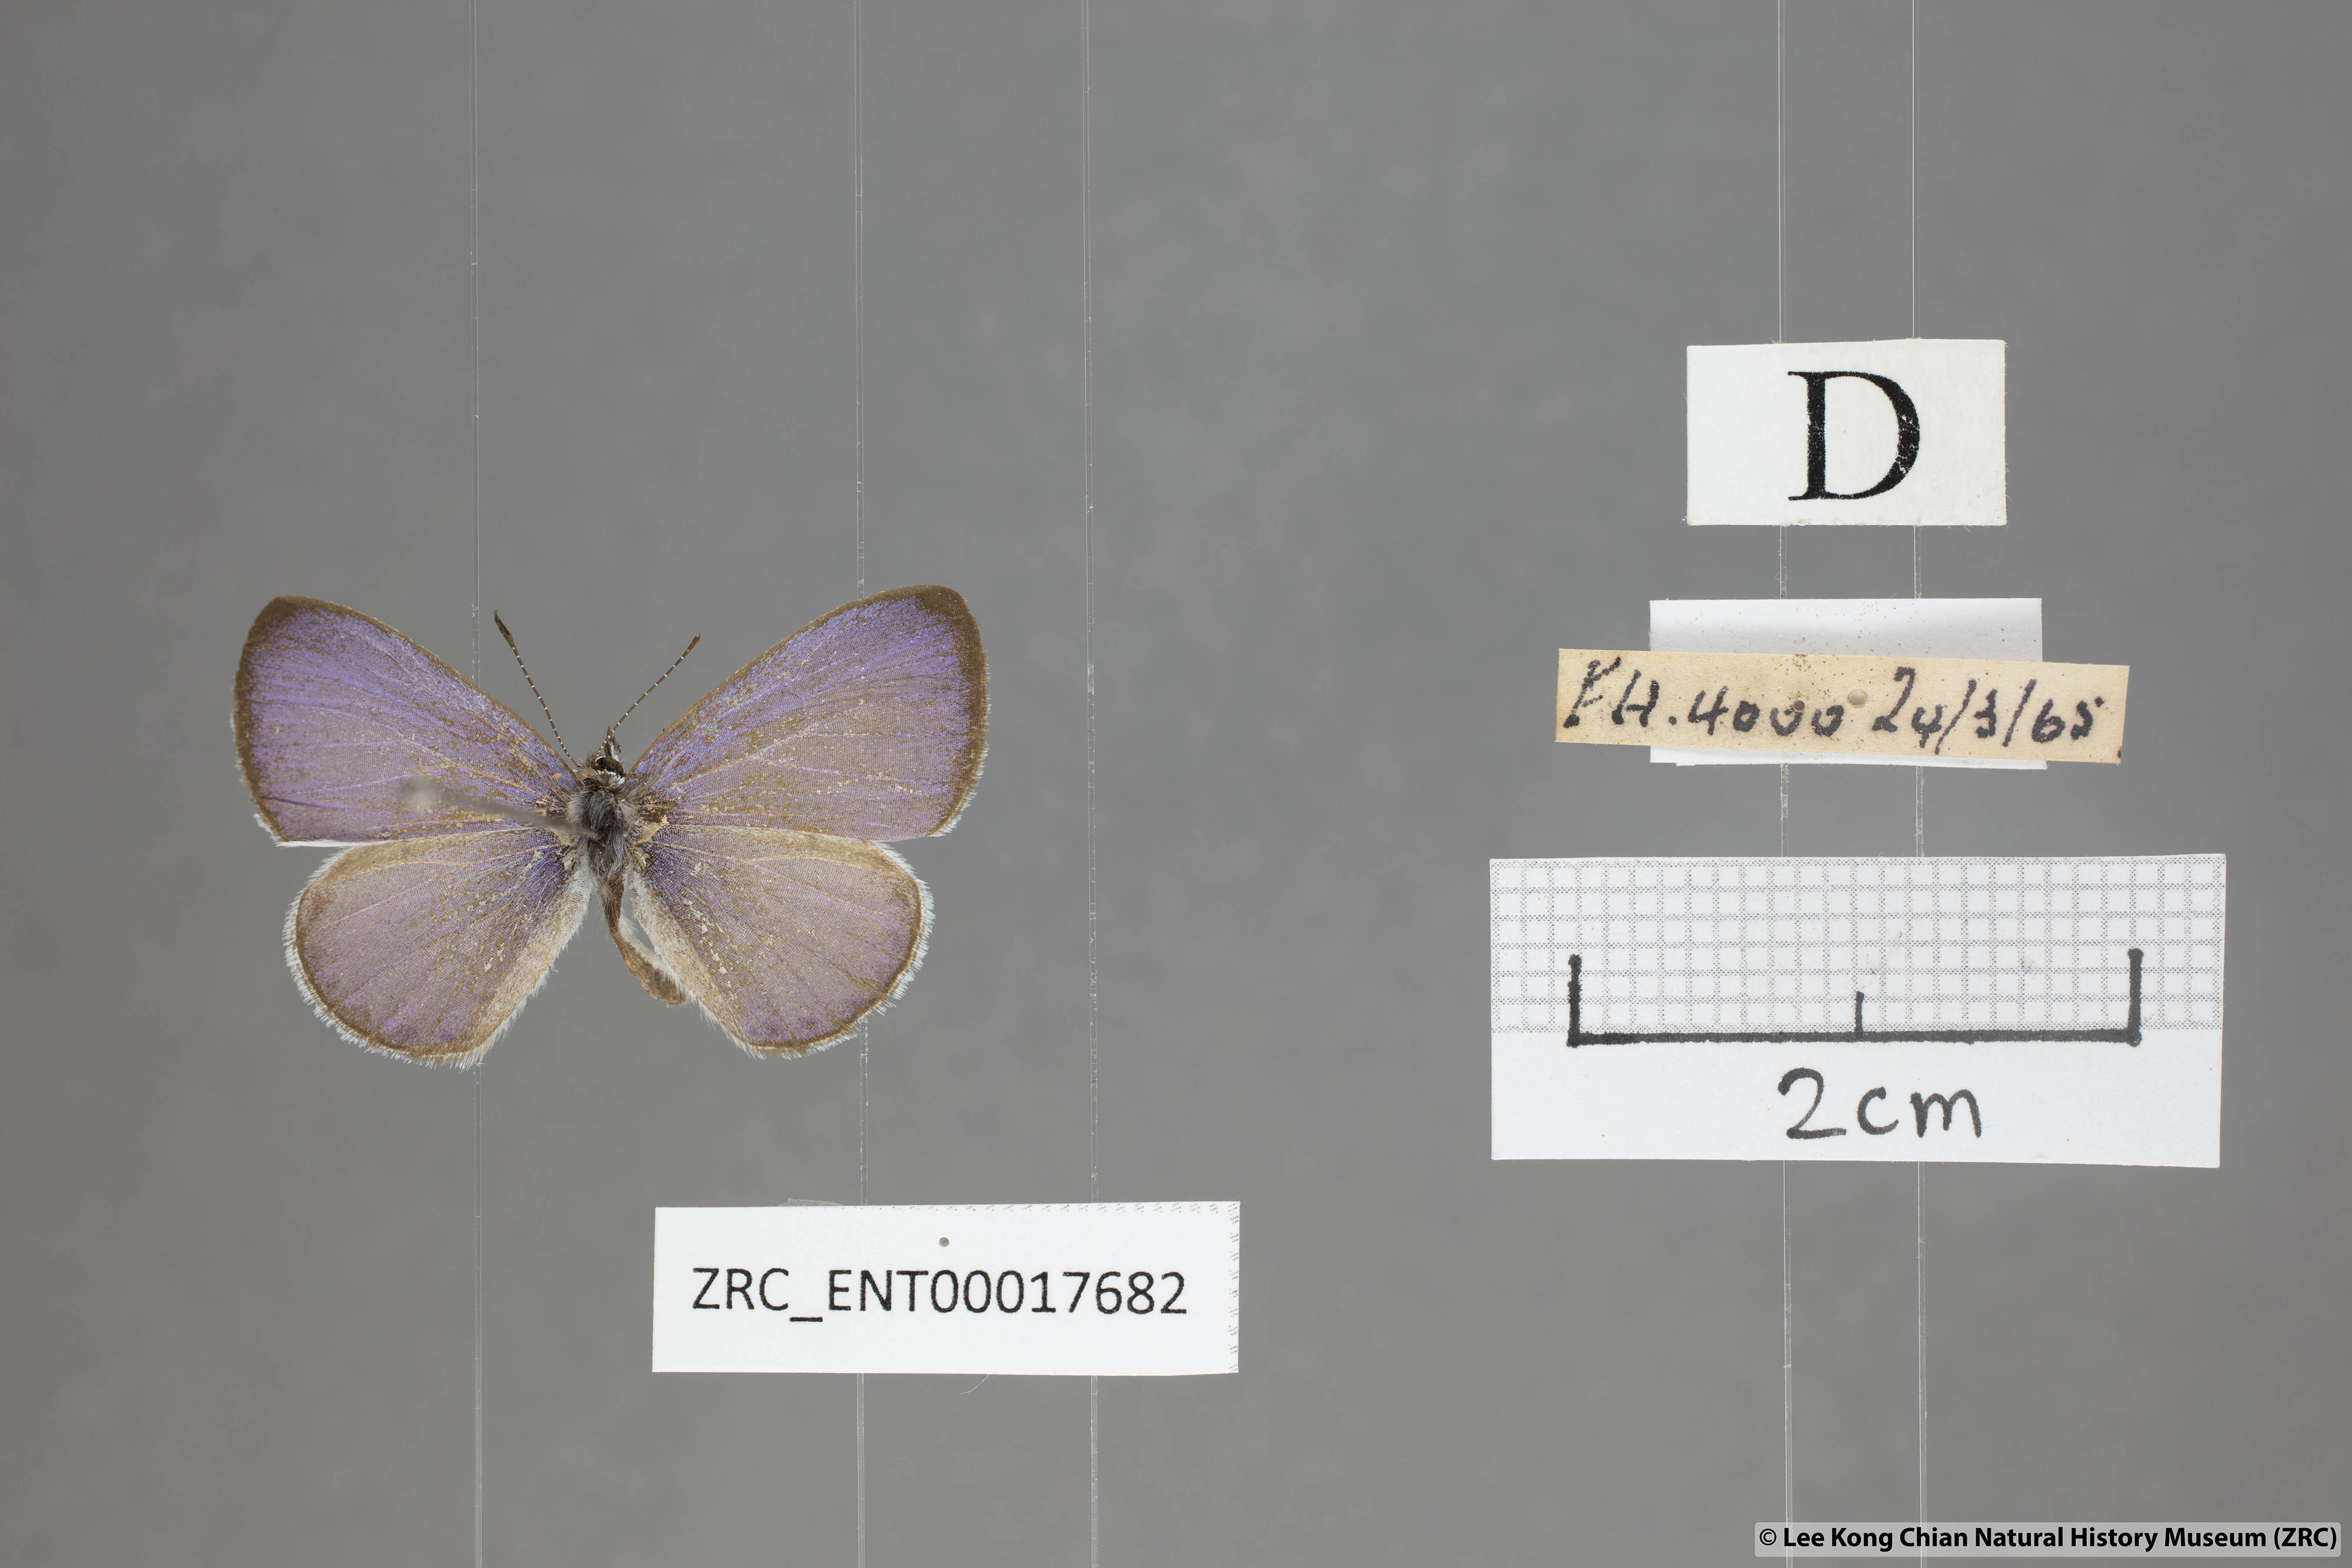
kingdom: Animalia
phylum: Arthropoda
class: Insecta
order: Lepidoptera
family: Lycaenidae
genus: Udara
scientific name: Udara camenae
